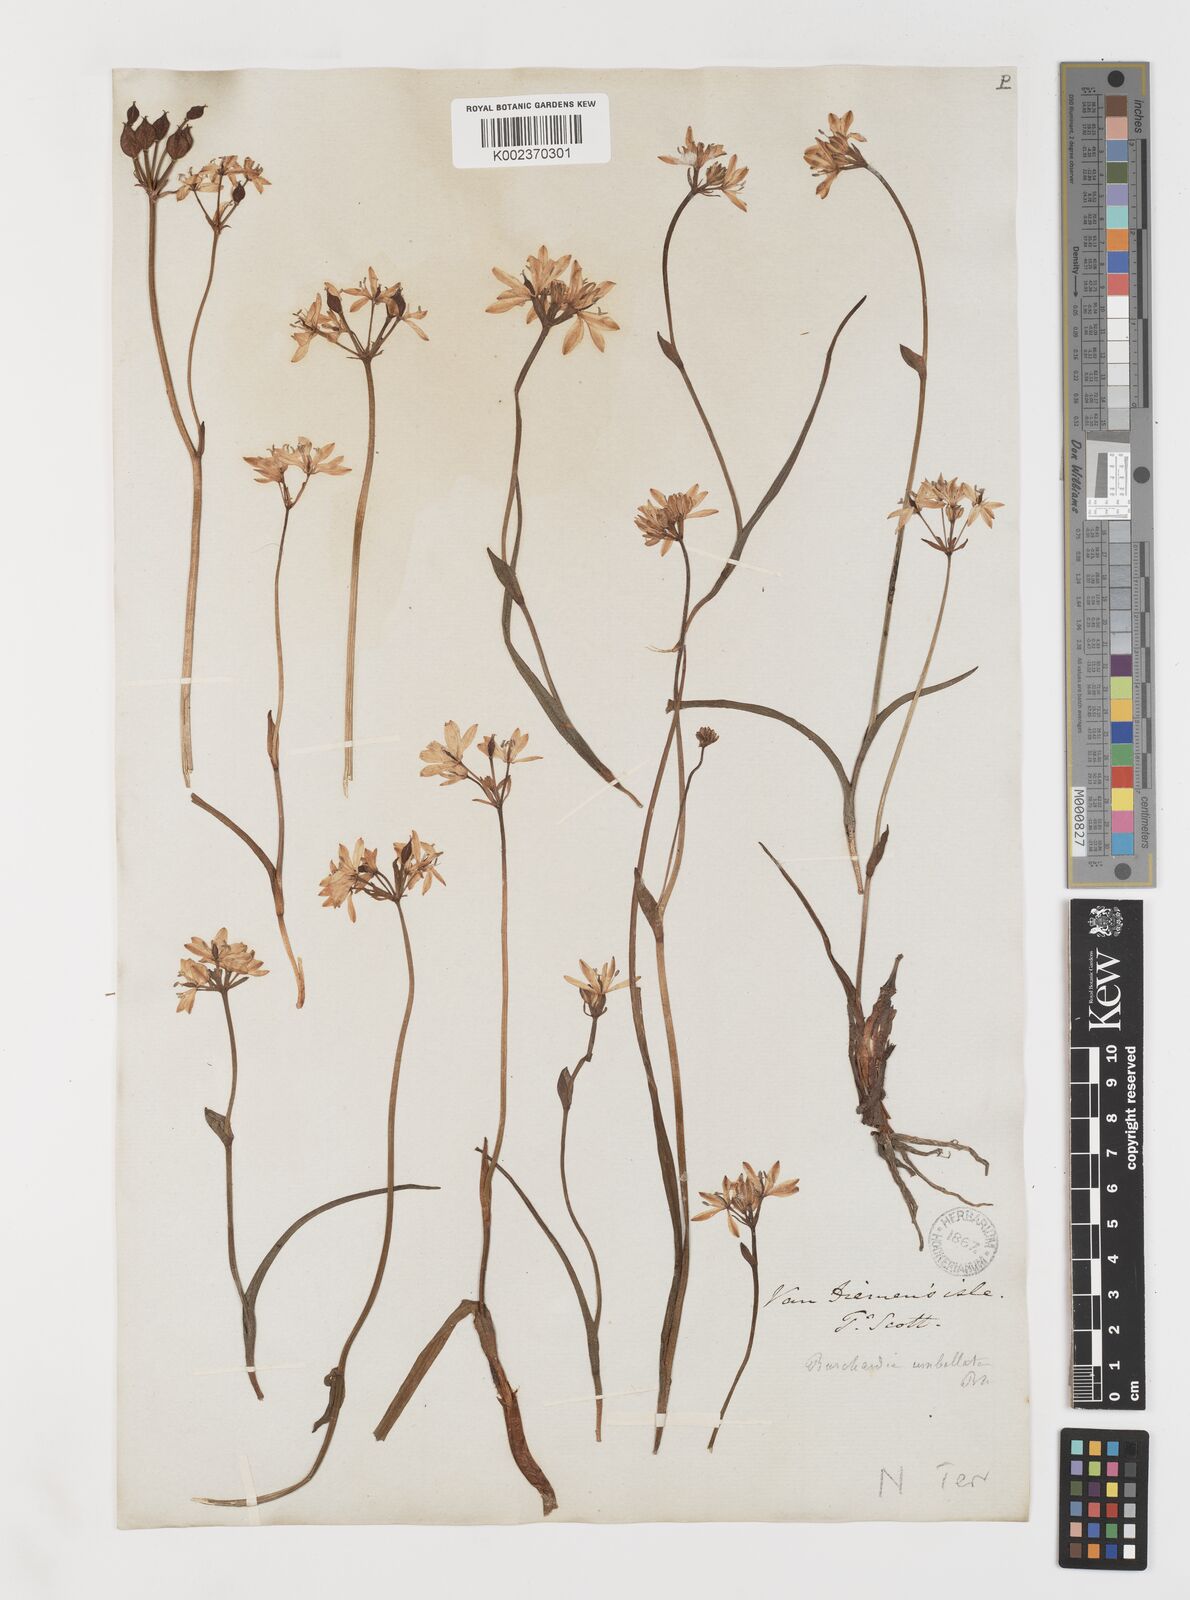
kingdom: Plantae
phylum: Tracheophyta
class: Liliopsida
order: Liliales
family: Colchicaceae
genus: Burchardia
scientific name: Burchardia umbellata
